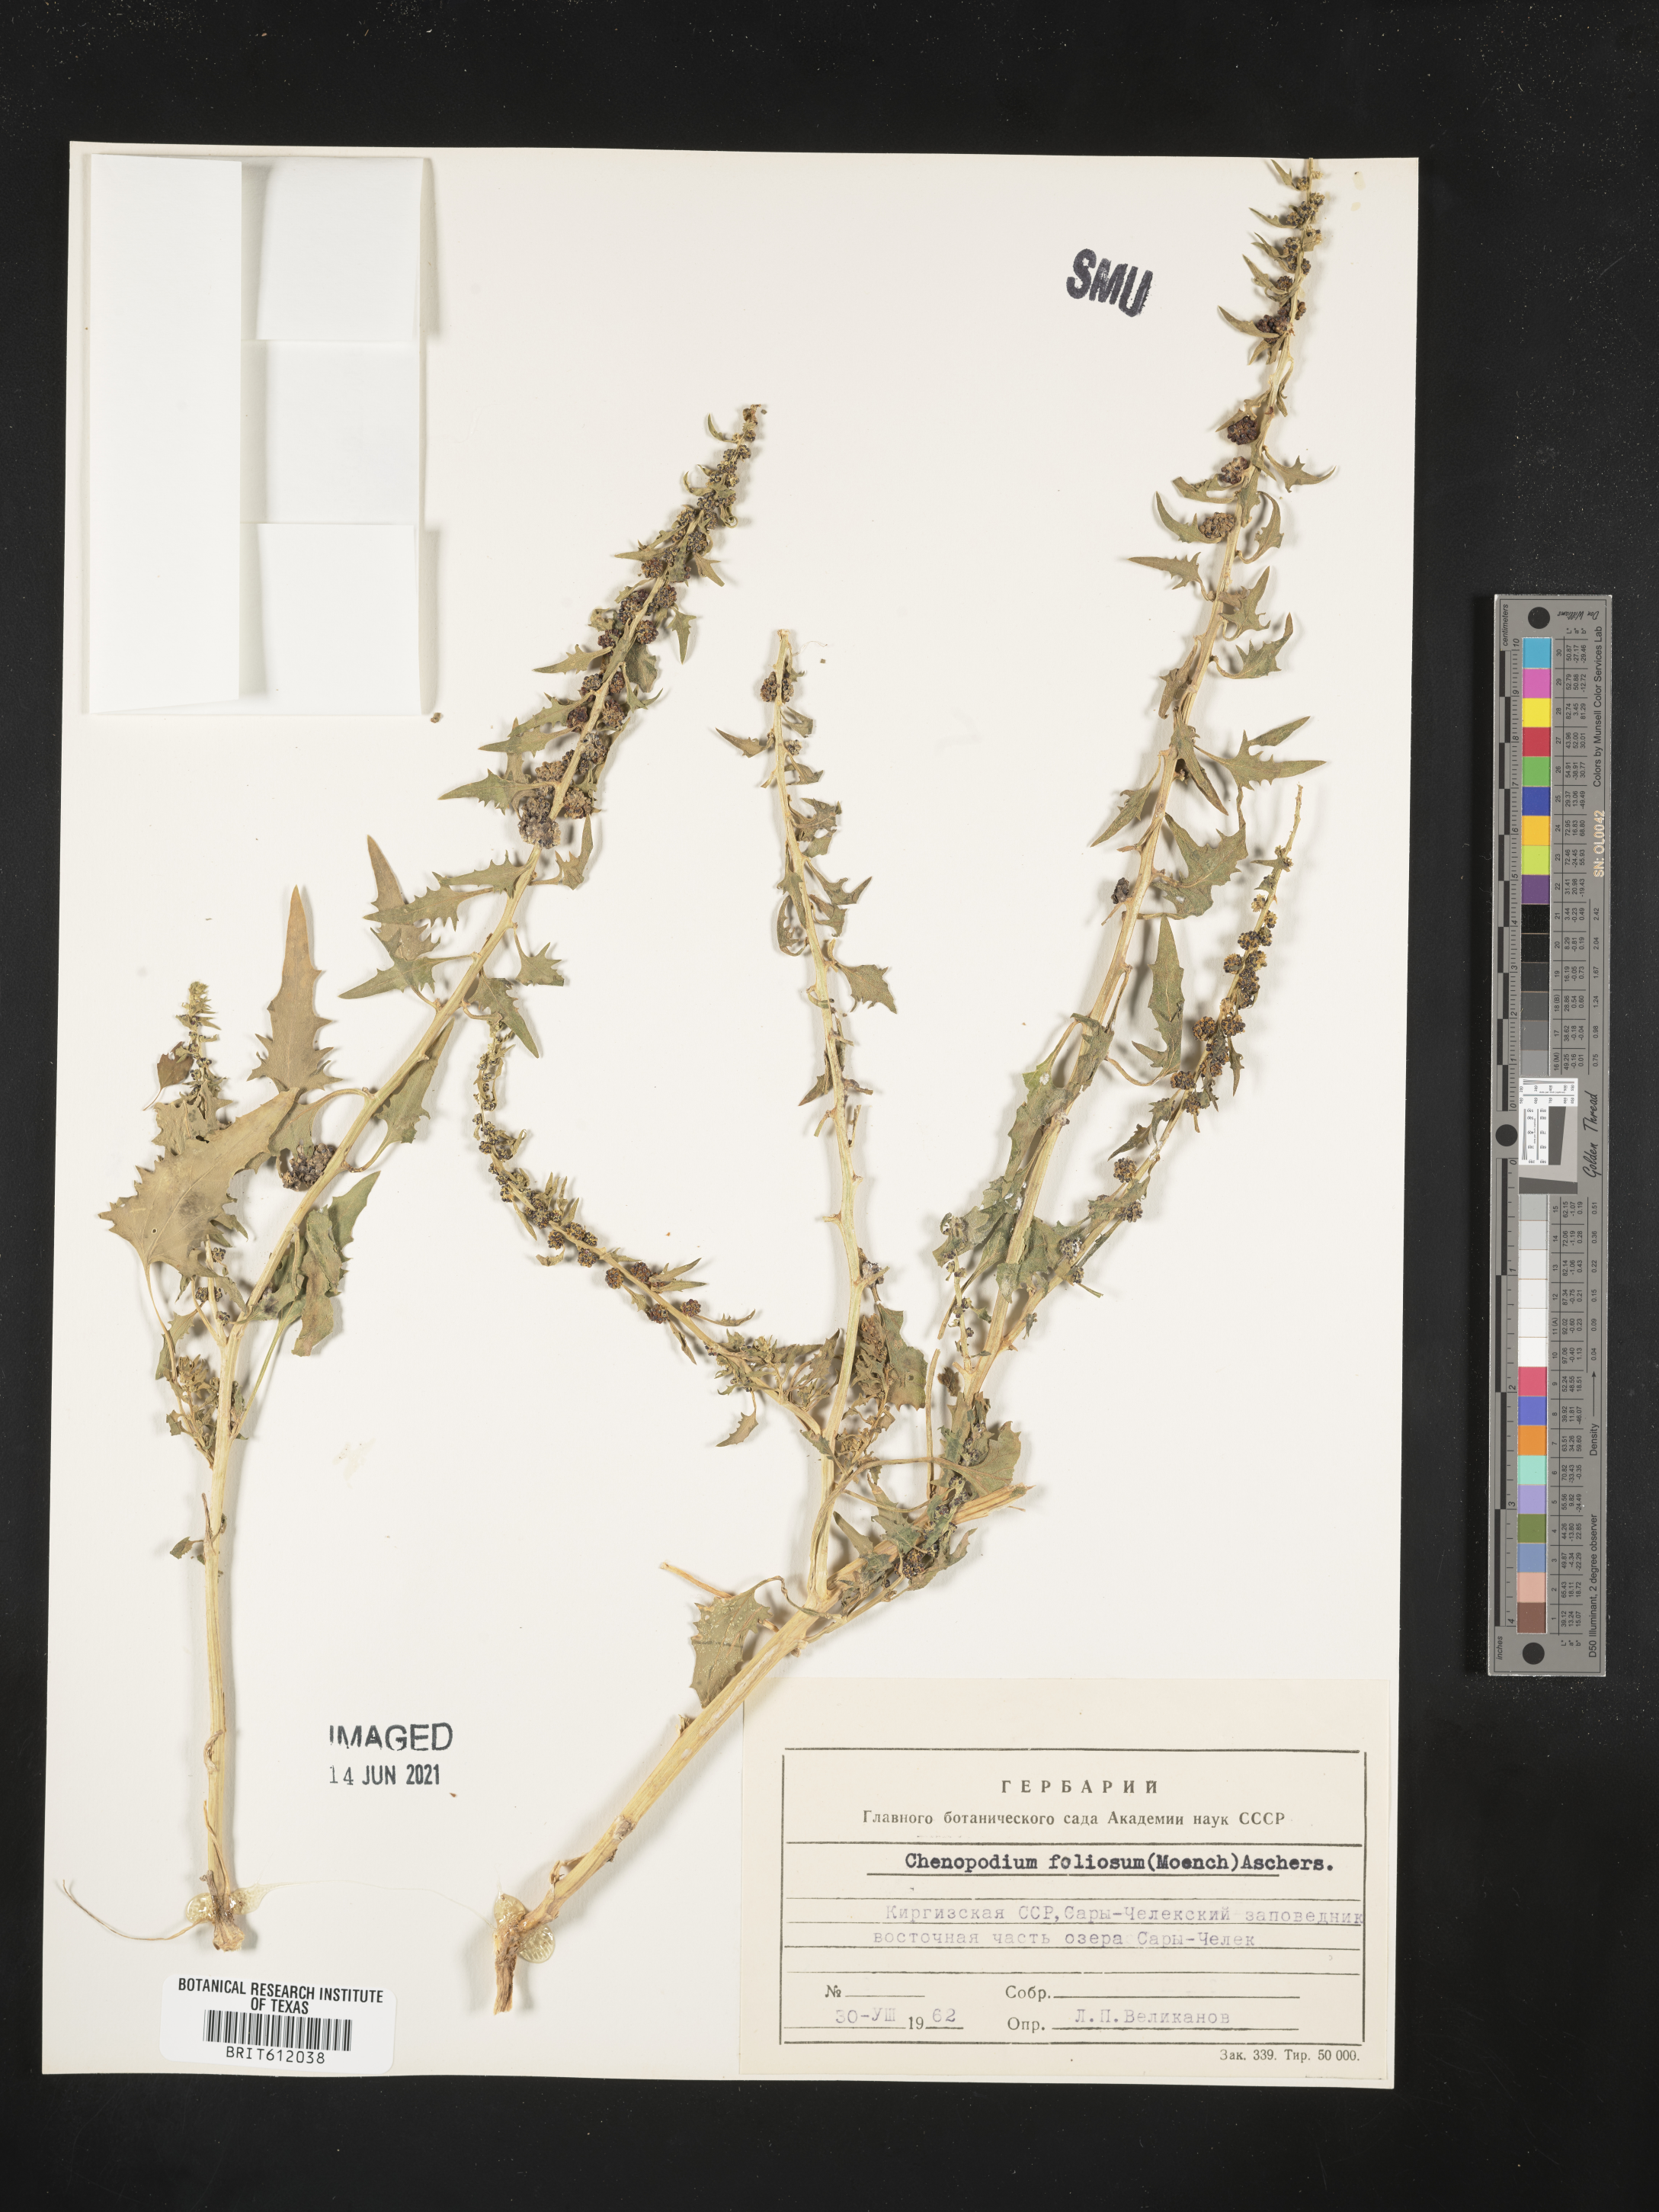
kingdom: Plantae
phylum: Tracheophyta
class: Magnoliopsida
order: Caryophyllales
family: Amaranthaceae
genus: Blitum
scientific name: Blitum virgatum
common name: Strawberry goosefoot
